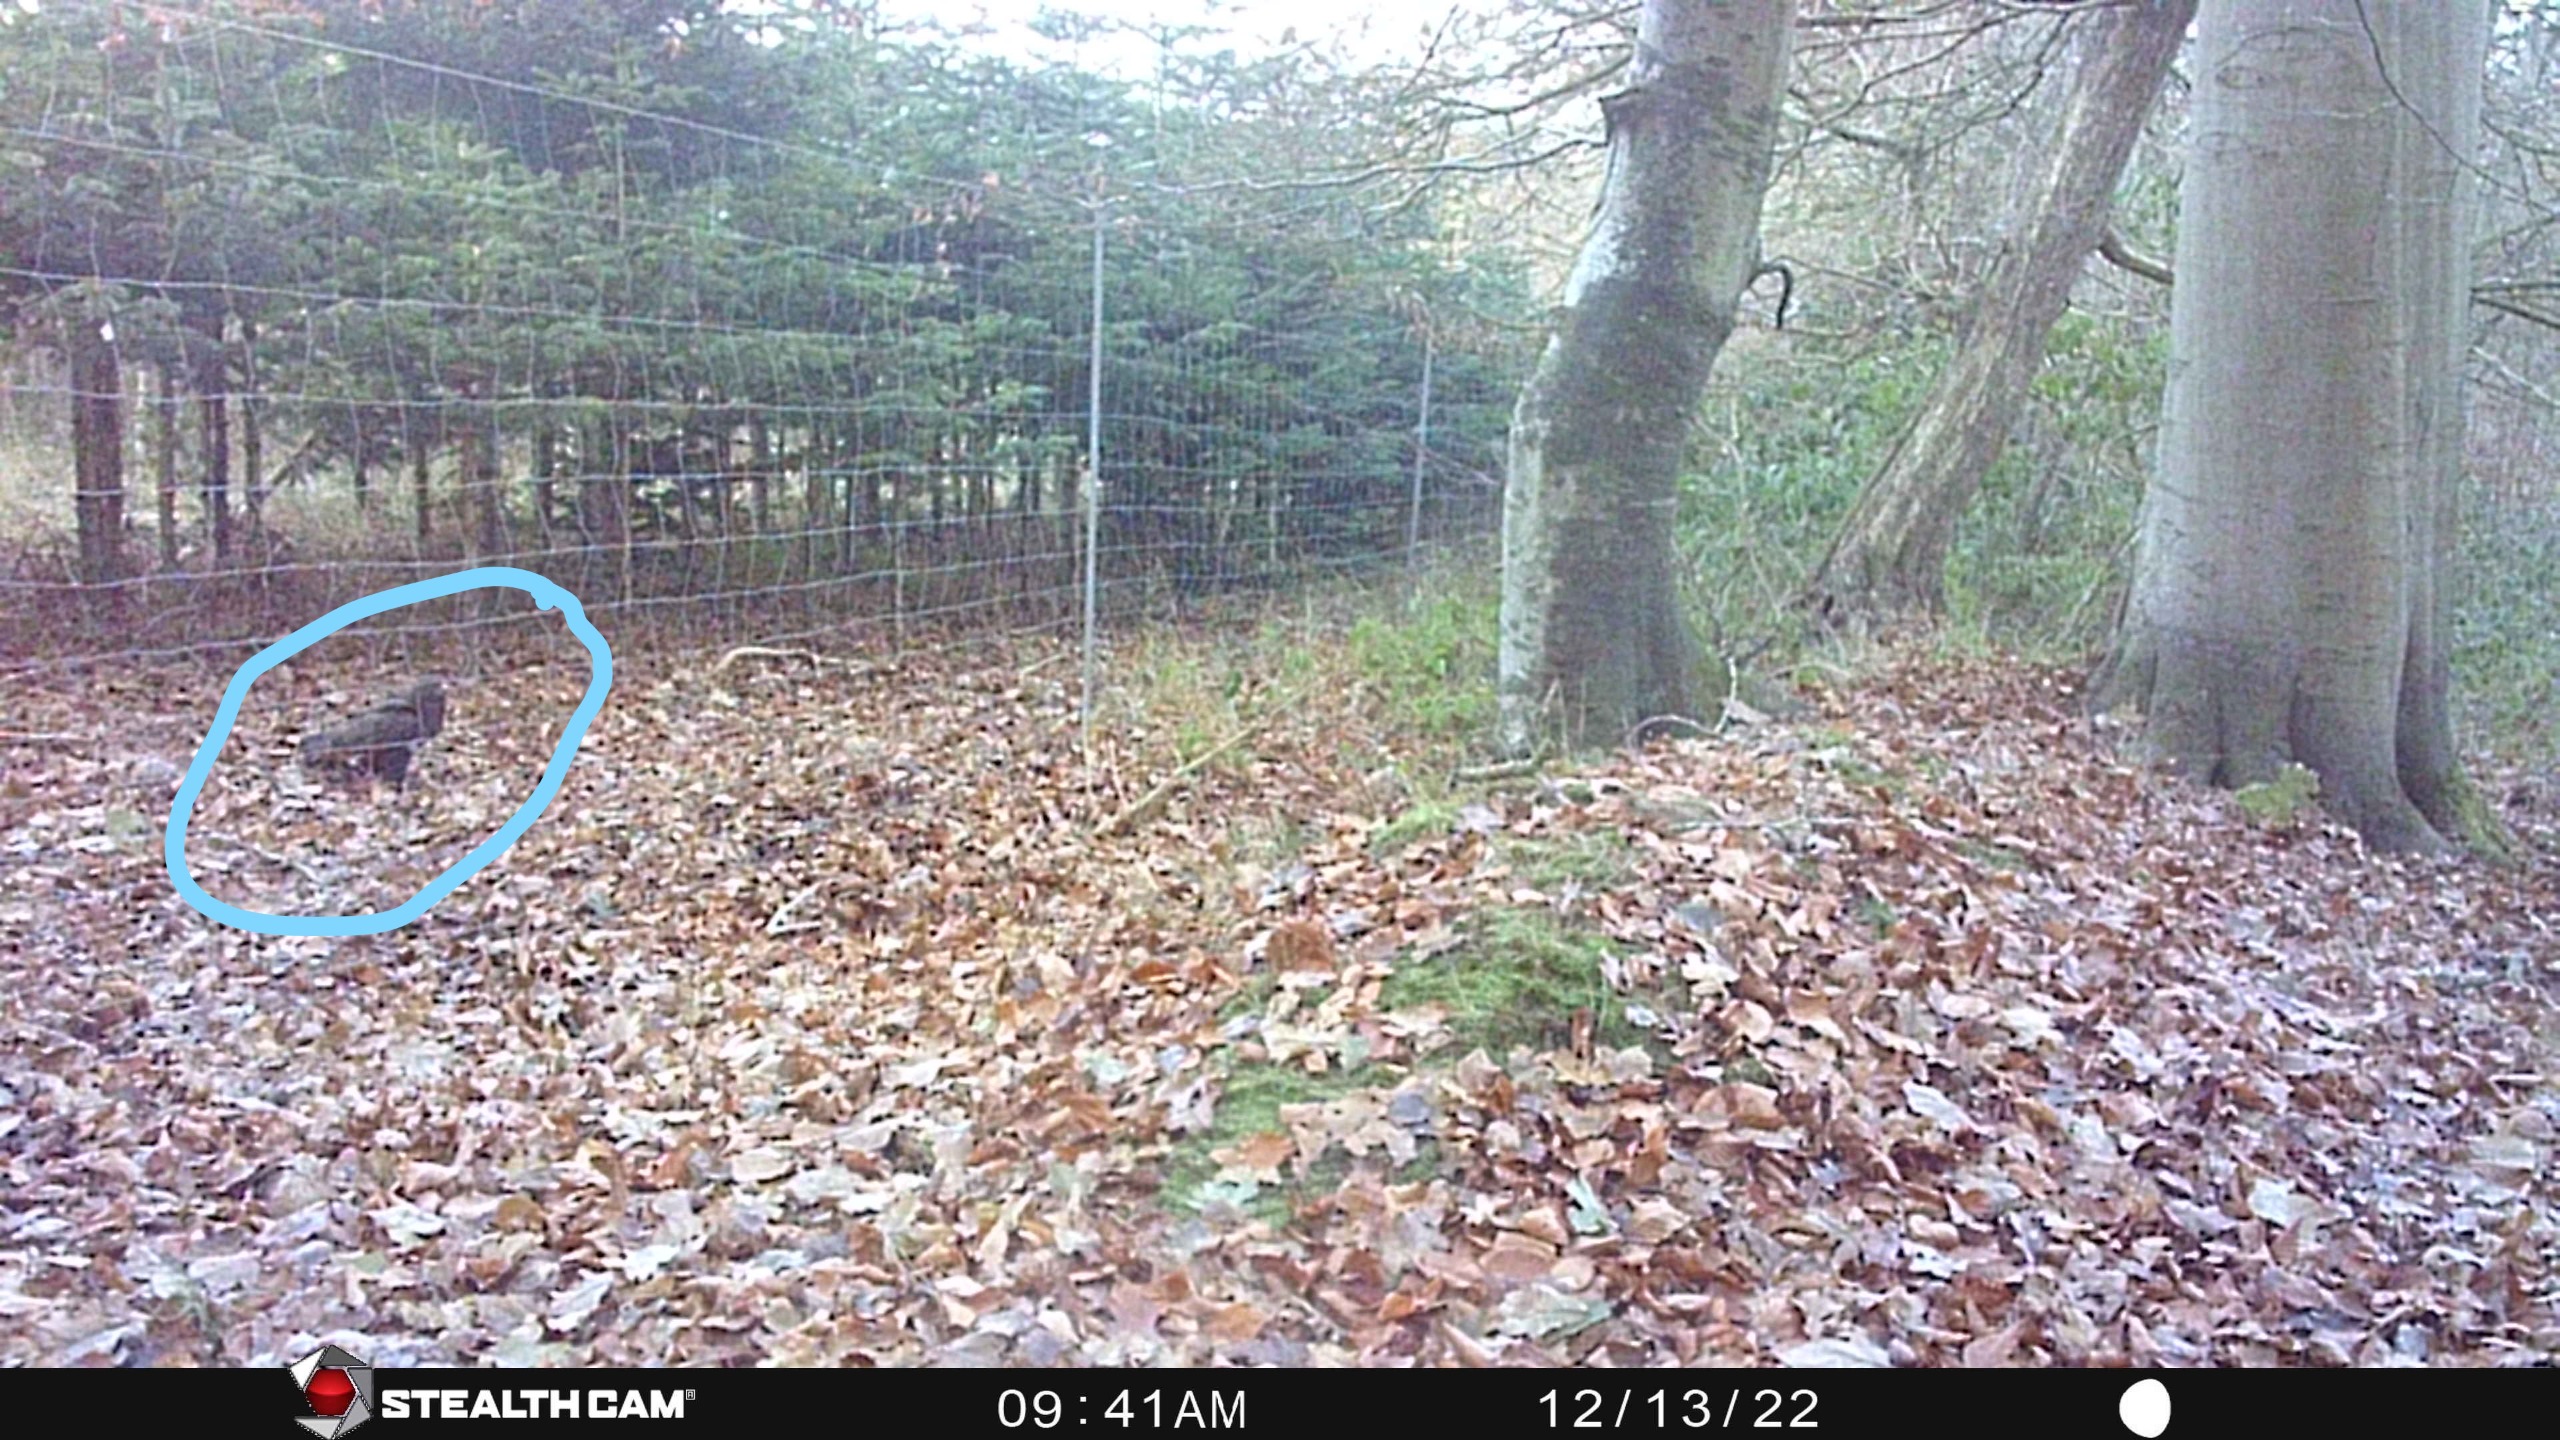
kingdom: Animalia
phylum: Chordata
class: Aves
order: Accipitriformes
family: Accipitridae
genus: Buteo
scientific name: Buteo buteo
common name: Musvåge
